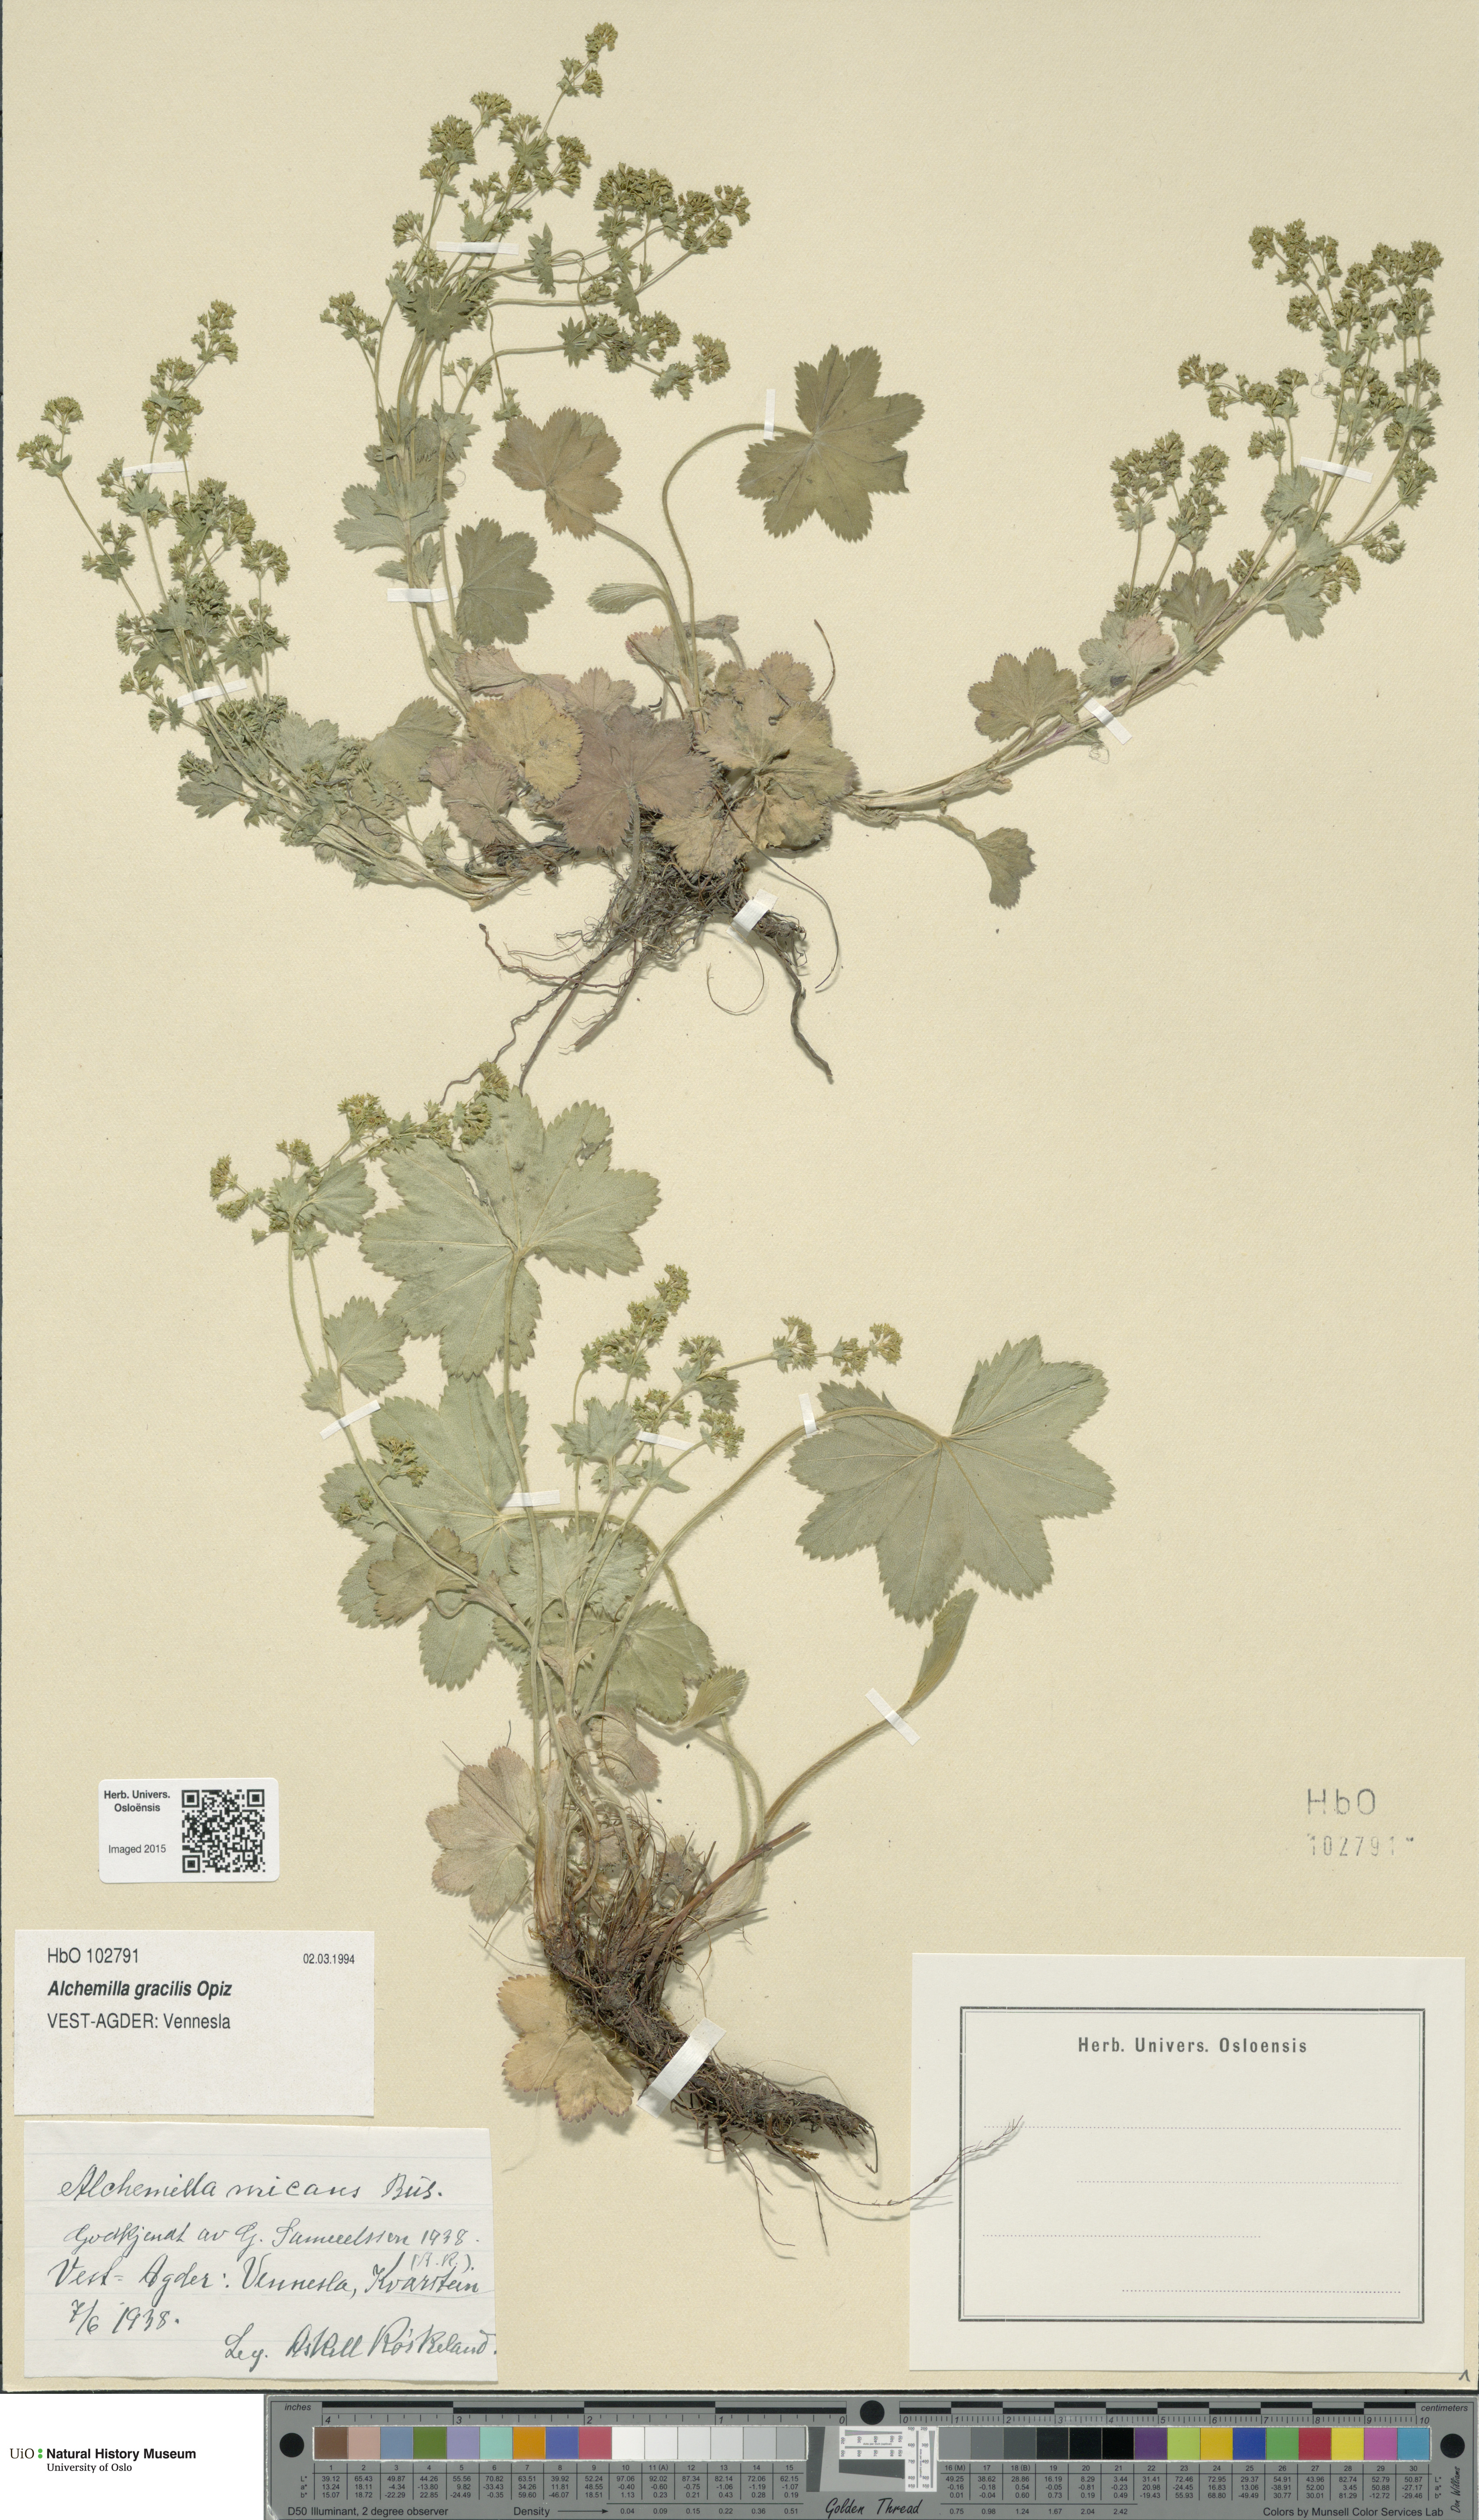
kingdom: Plantae
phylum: Tracheophyta
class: Magnoliopsida
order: Rosales
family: Rosaceae
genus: Alchemilla
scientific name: Alchemilla micans
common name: Gleaming lady's mantle
